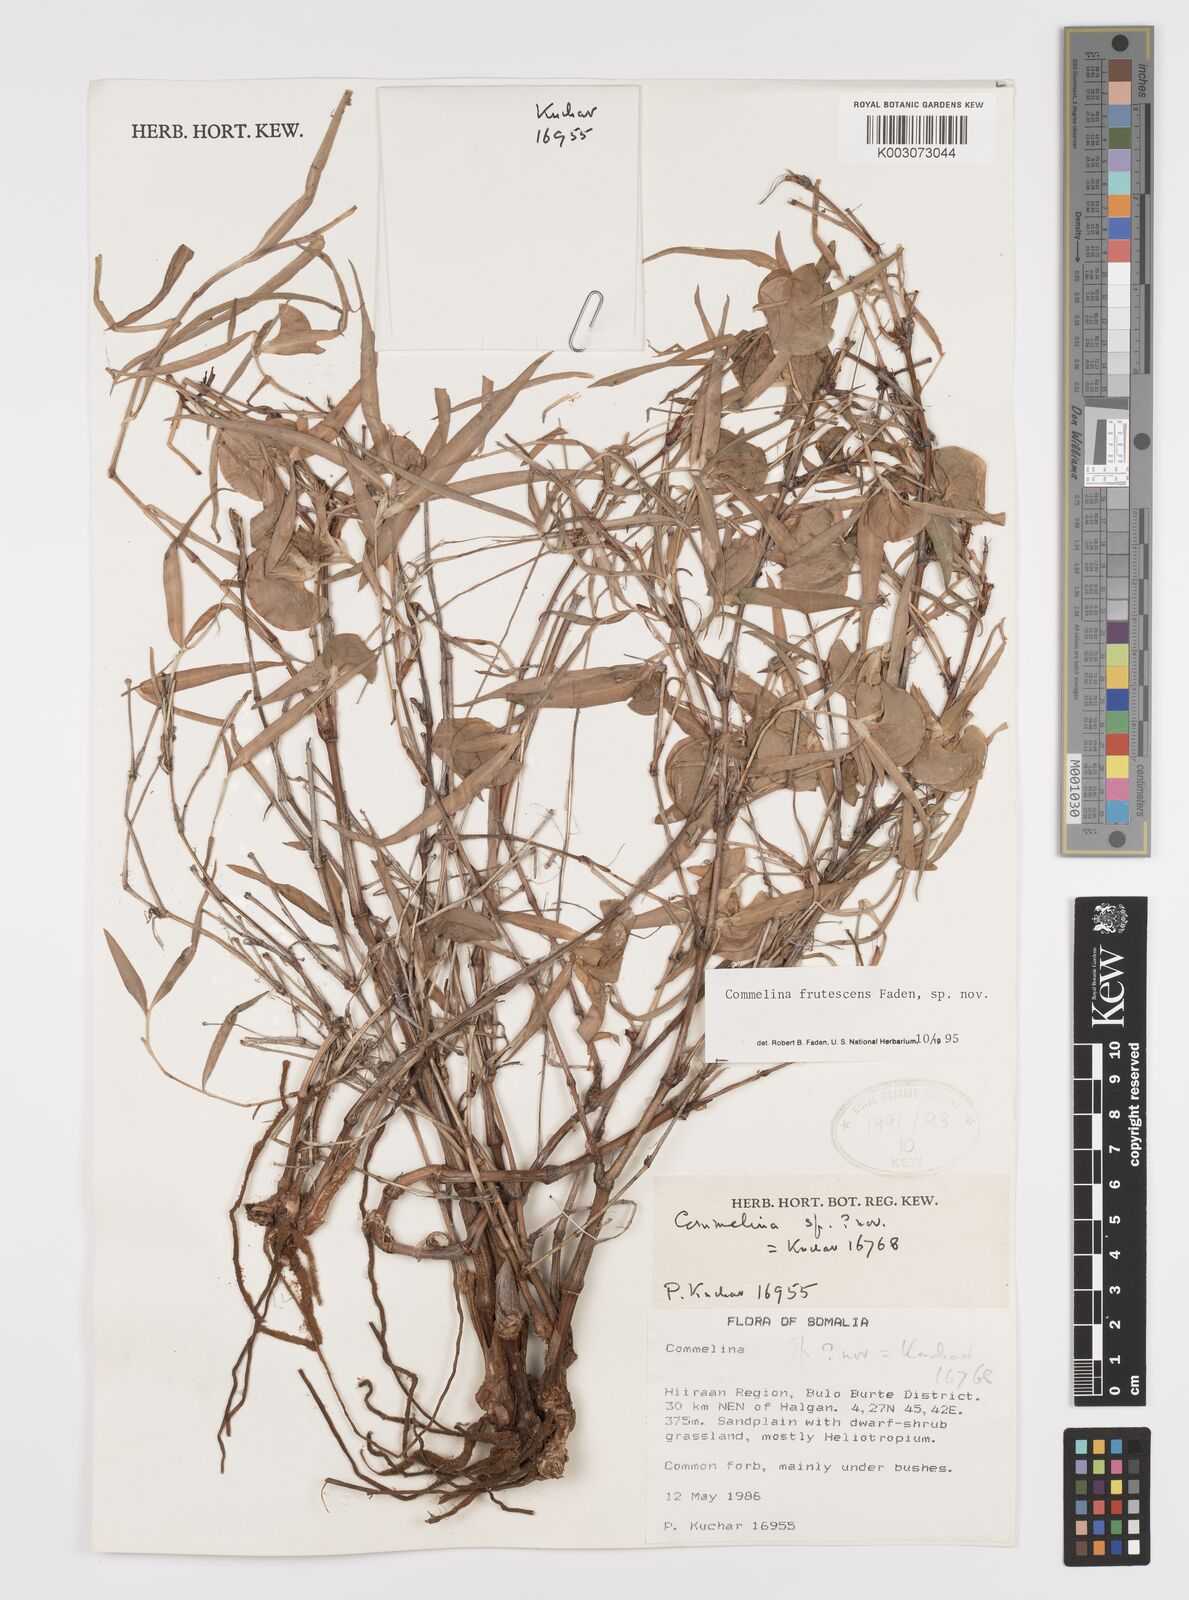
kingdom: Plantae
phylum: Tracheophyta
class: Liliopsida
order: Commelinales
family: Commelinaceae
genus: Commelina
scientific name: Commelina frutescens
